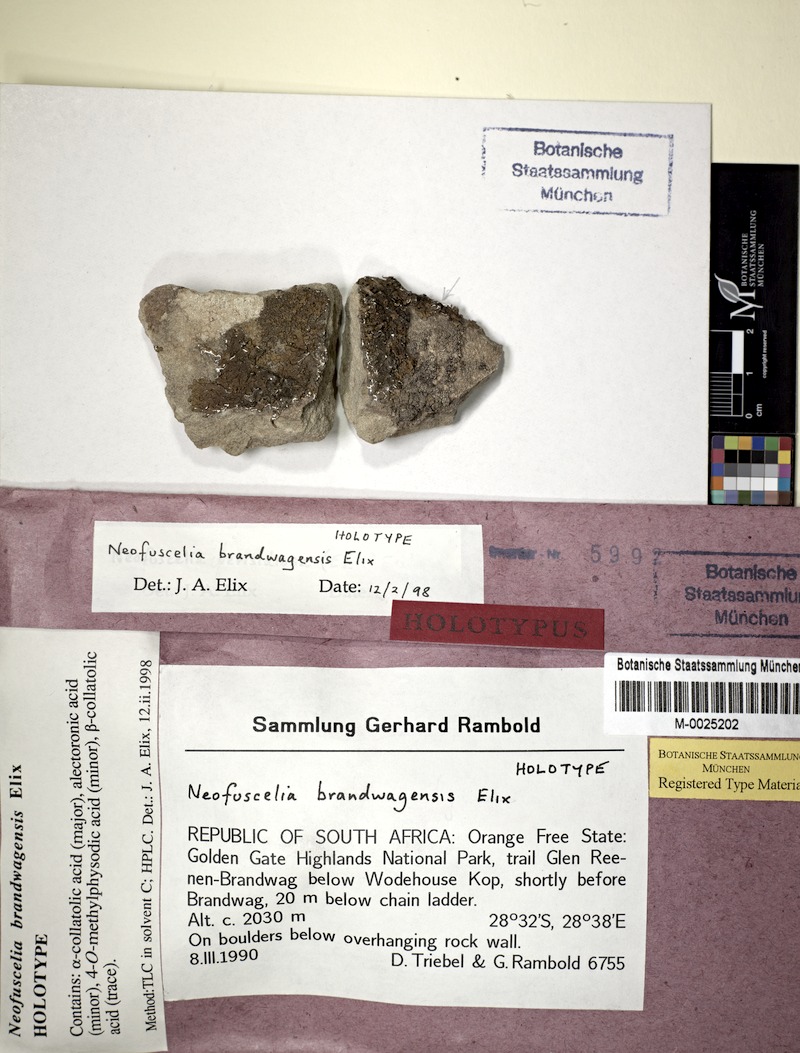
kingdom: Fungi
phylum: Ascomycota
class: Lecanoromycetes
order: Lecanorales
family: Parmeliaceae
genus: Xanthoparmelia
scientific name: Xanthoparmelia brandwagensis
